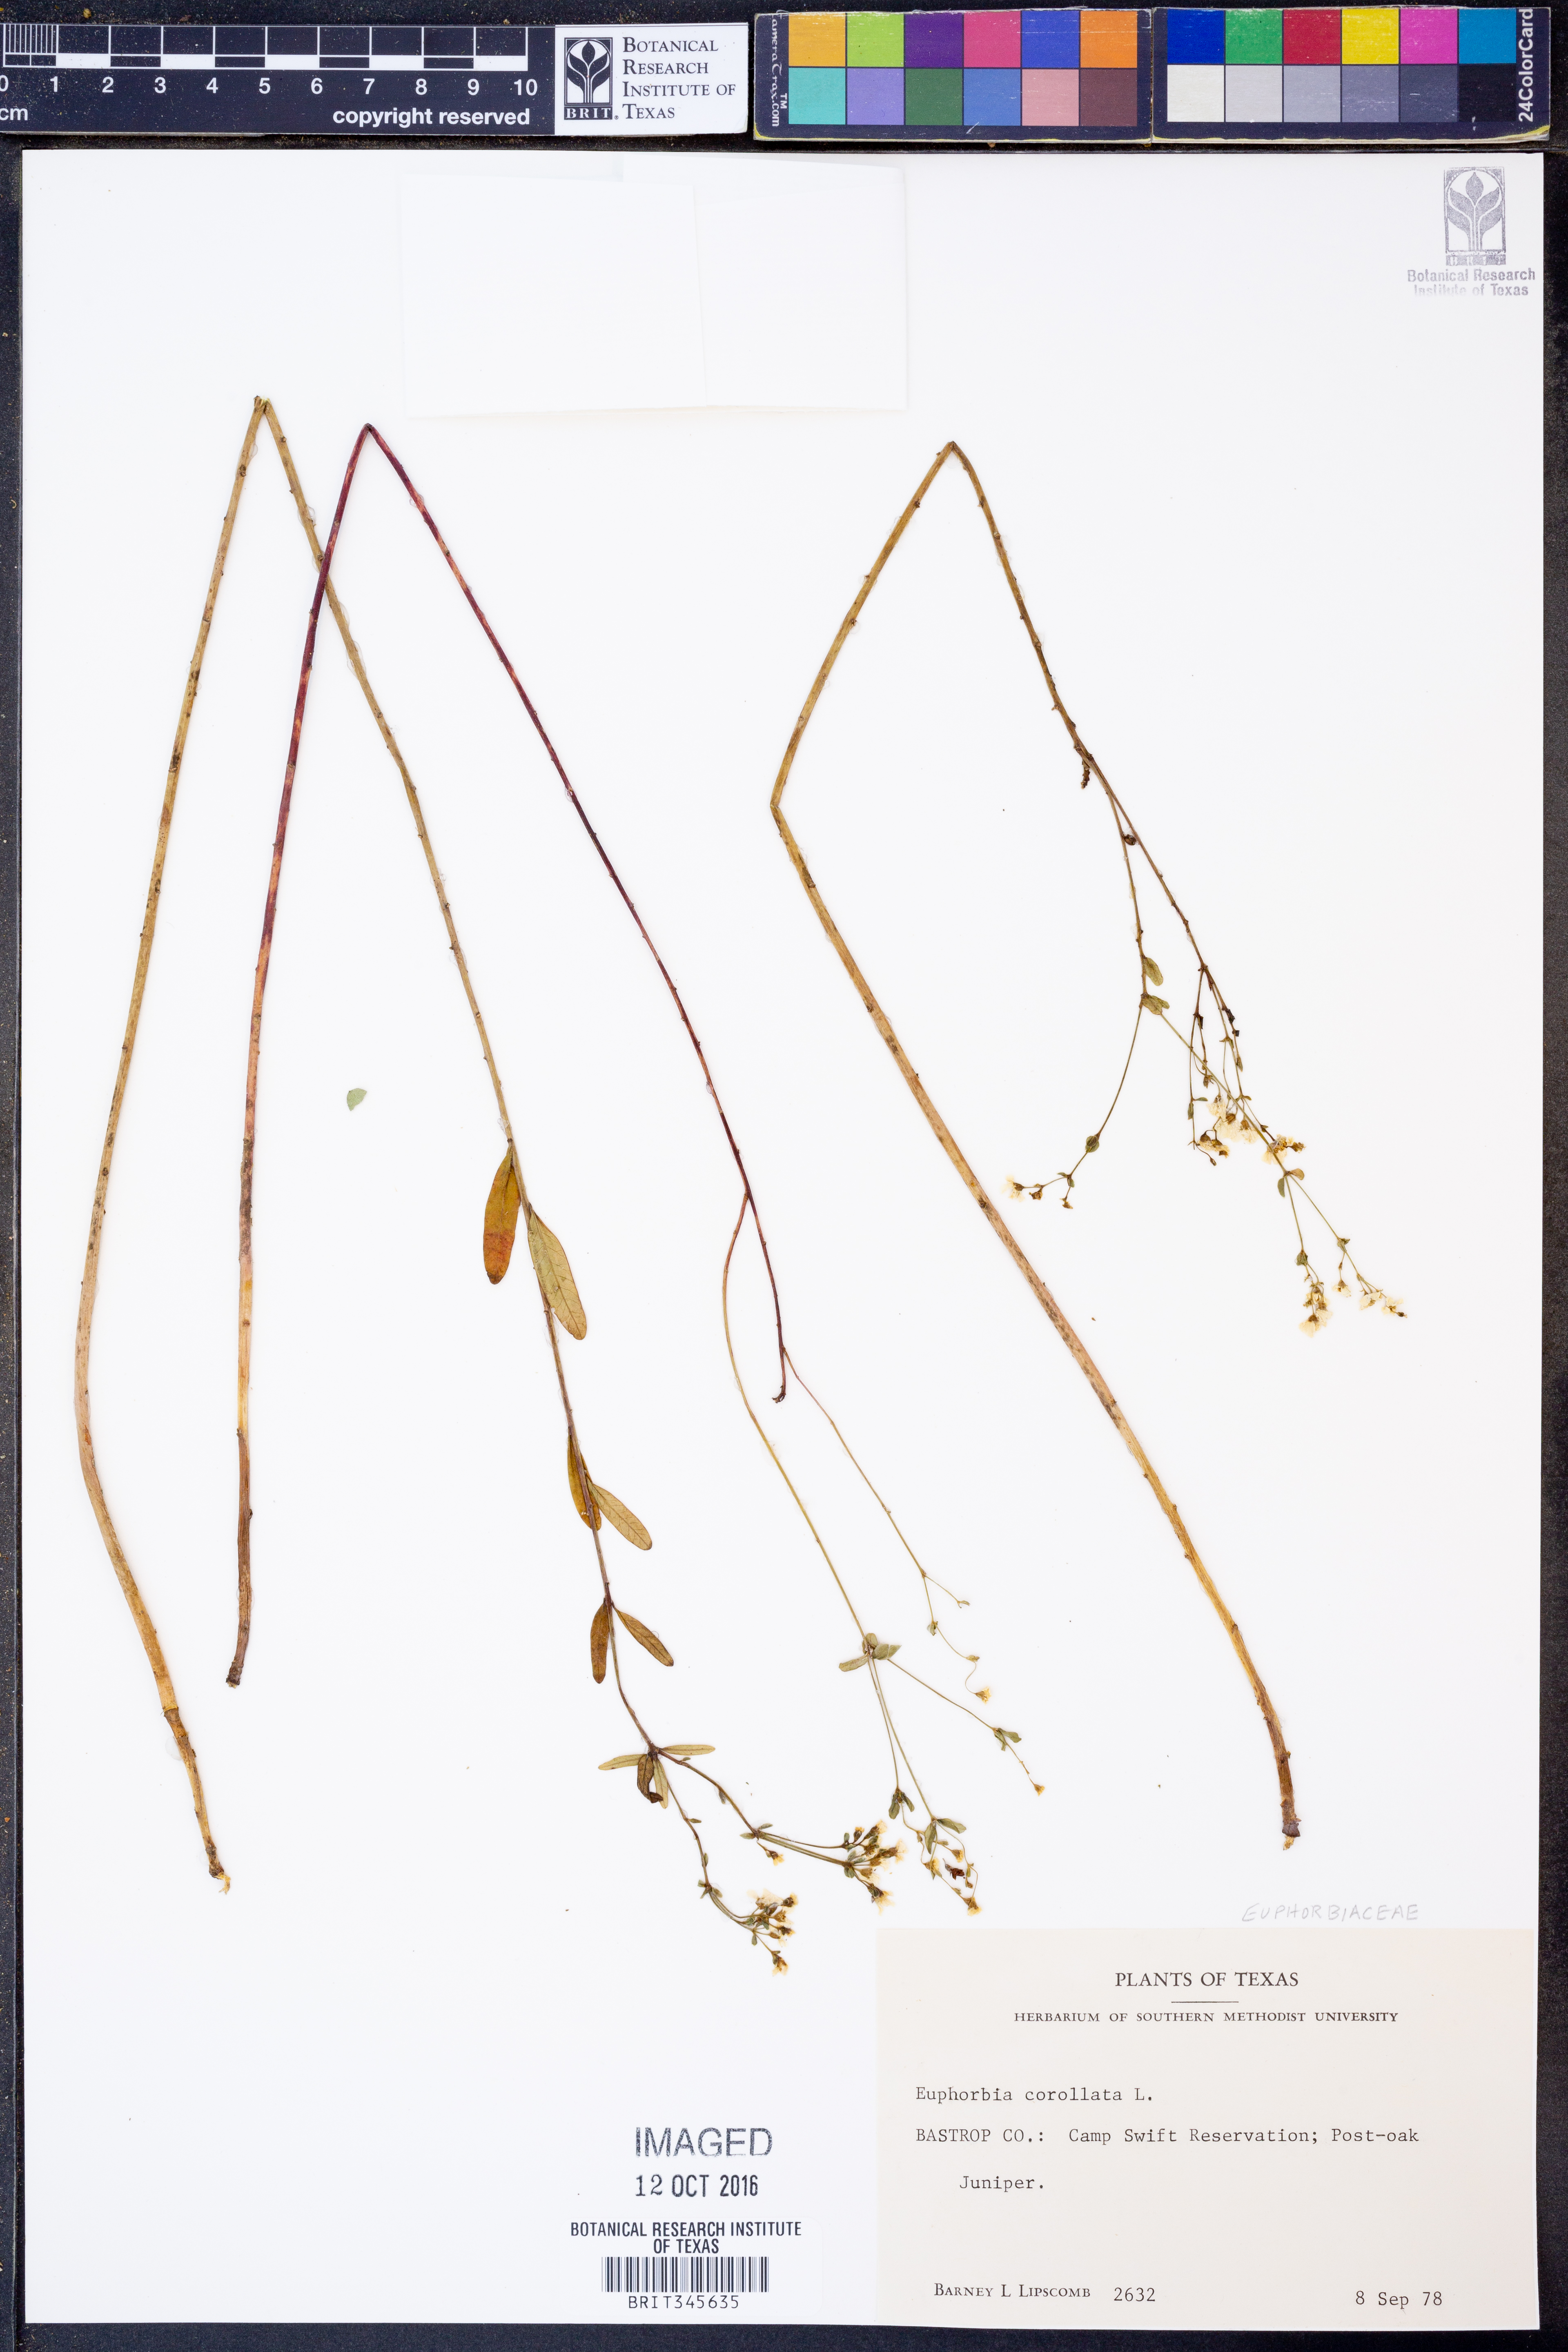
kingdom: Plantae
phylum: Tracheophyta
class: Magnoliopsida
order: Malpighiales
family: Euphorbiaceae
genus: Euphorbia
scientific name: Euphorbia corollata
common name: Flowering spurge
